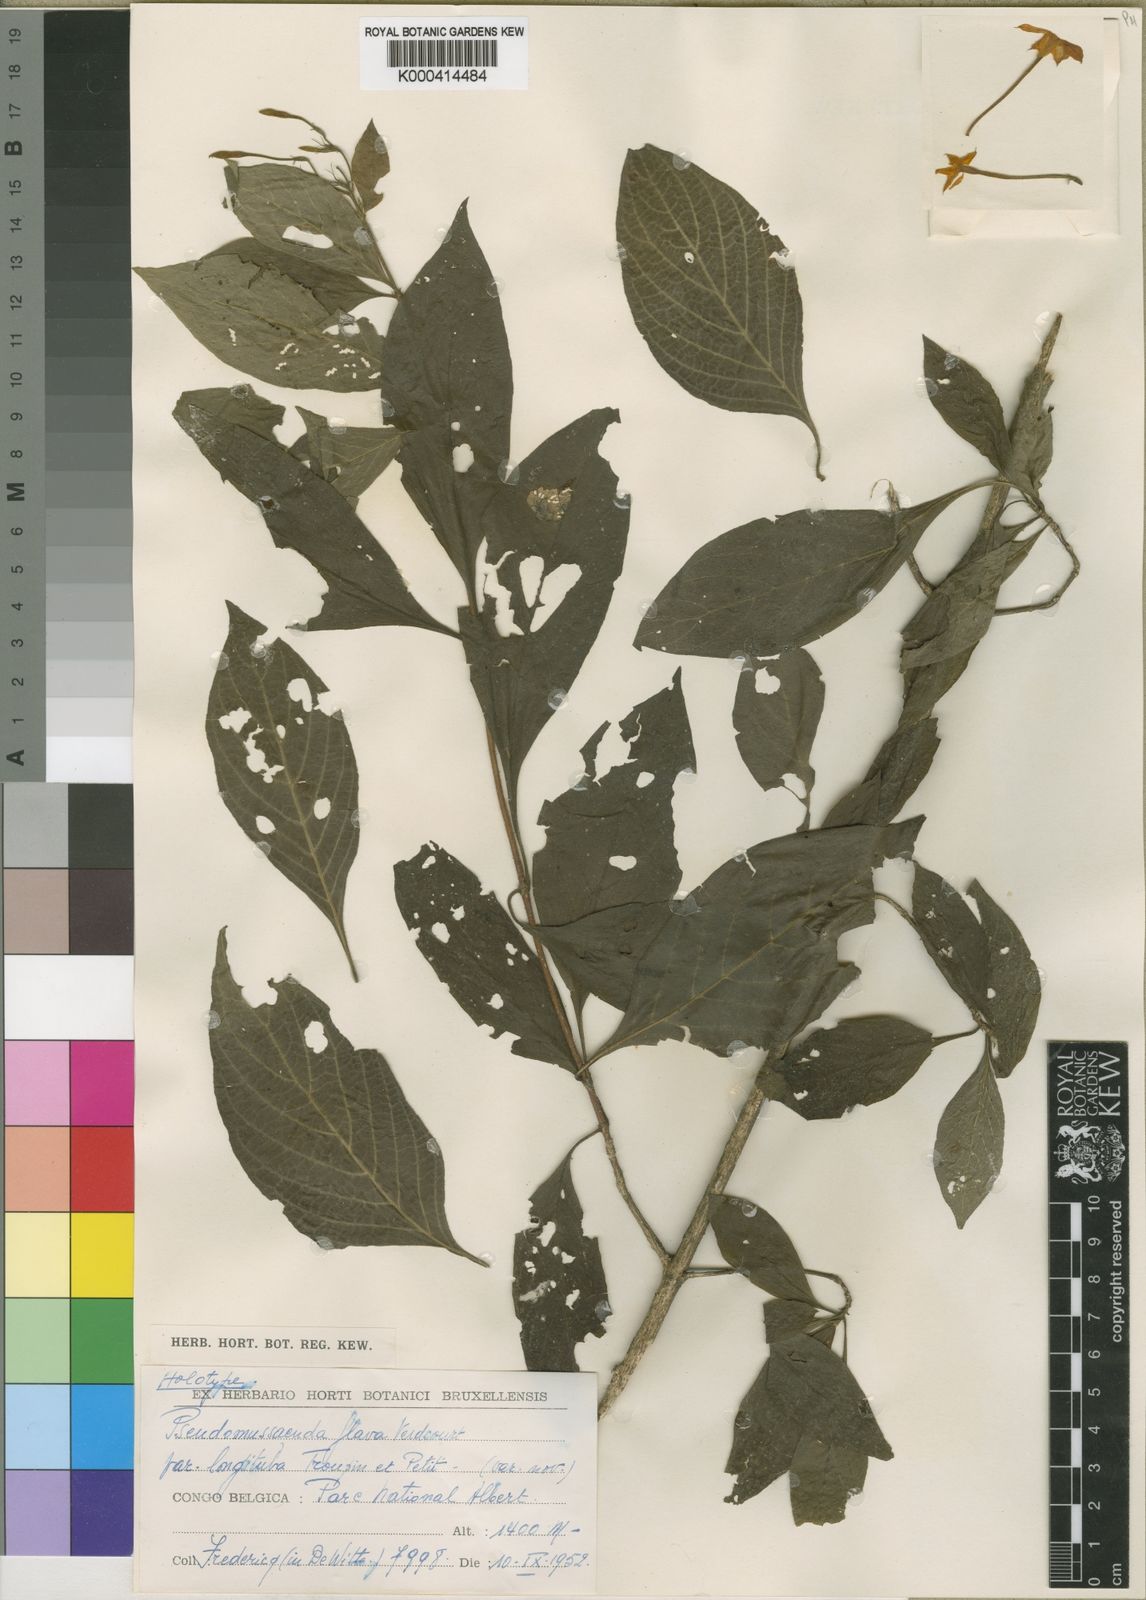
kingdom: Plantae
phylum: Tracheophyta
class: Magnoliopsida
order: Gentianales
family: Rubiaceae
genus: Pseudomussaenda
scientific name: Pseudomussaenda flava
